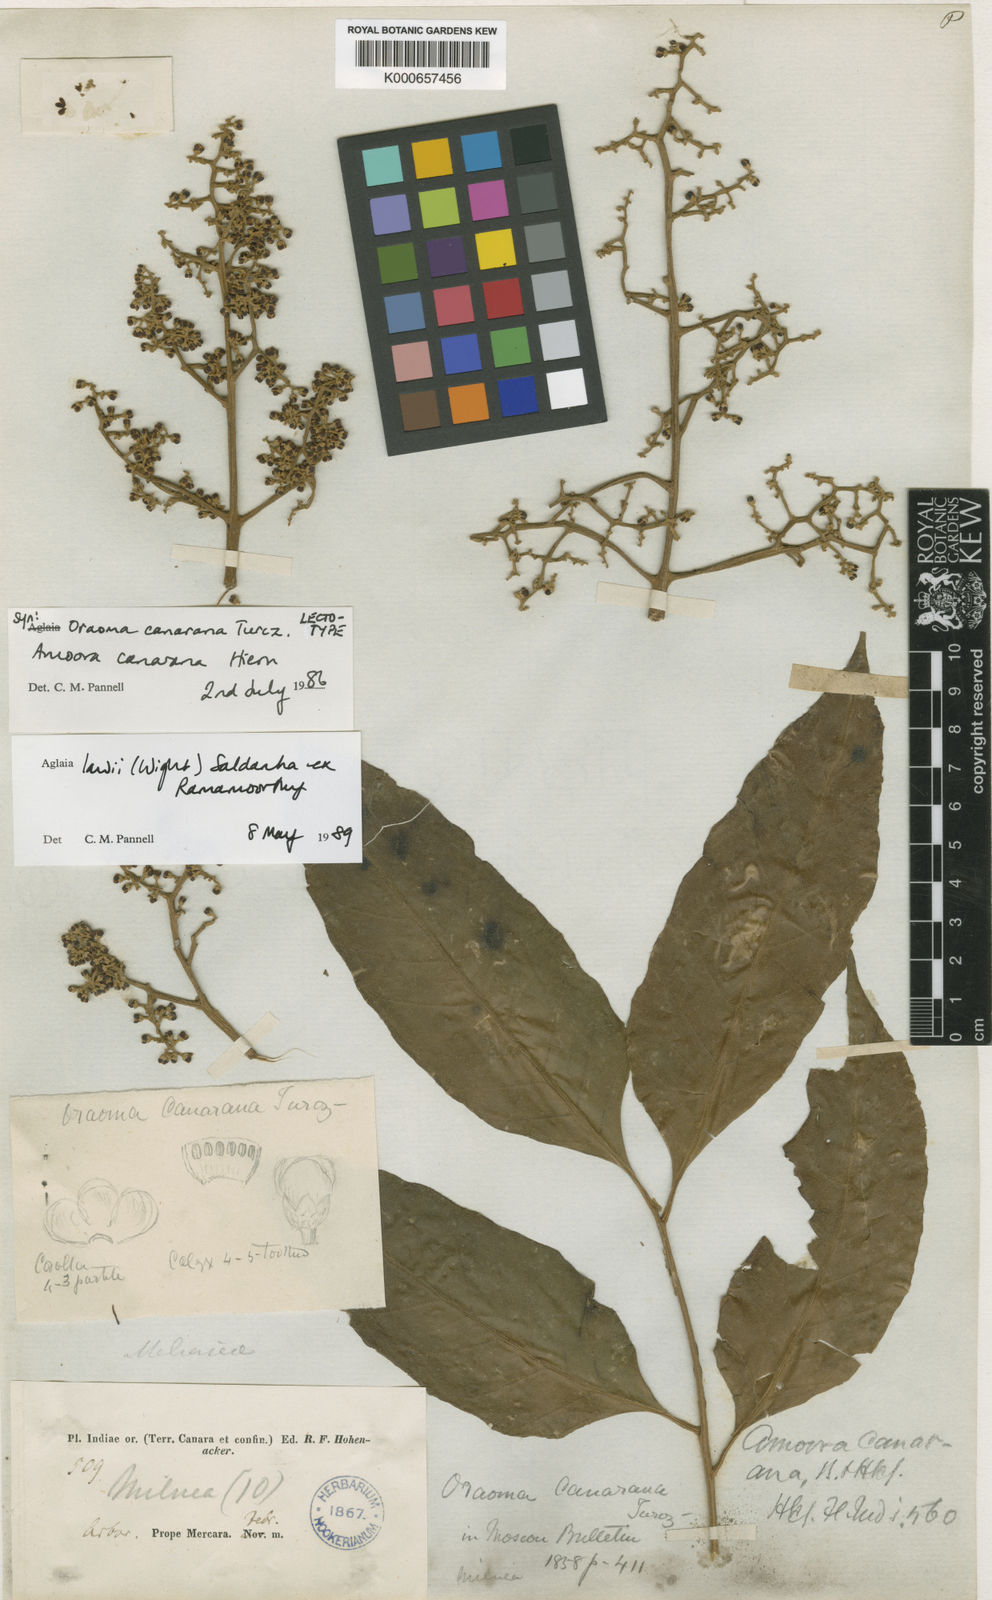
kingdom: Plantae
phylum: Tracheophyta
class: Magnoliopsida
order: Sapindales
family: Meliaceae
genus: Aglaia
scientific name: Aglaia
